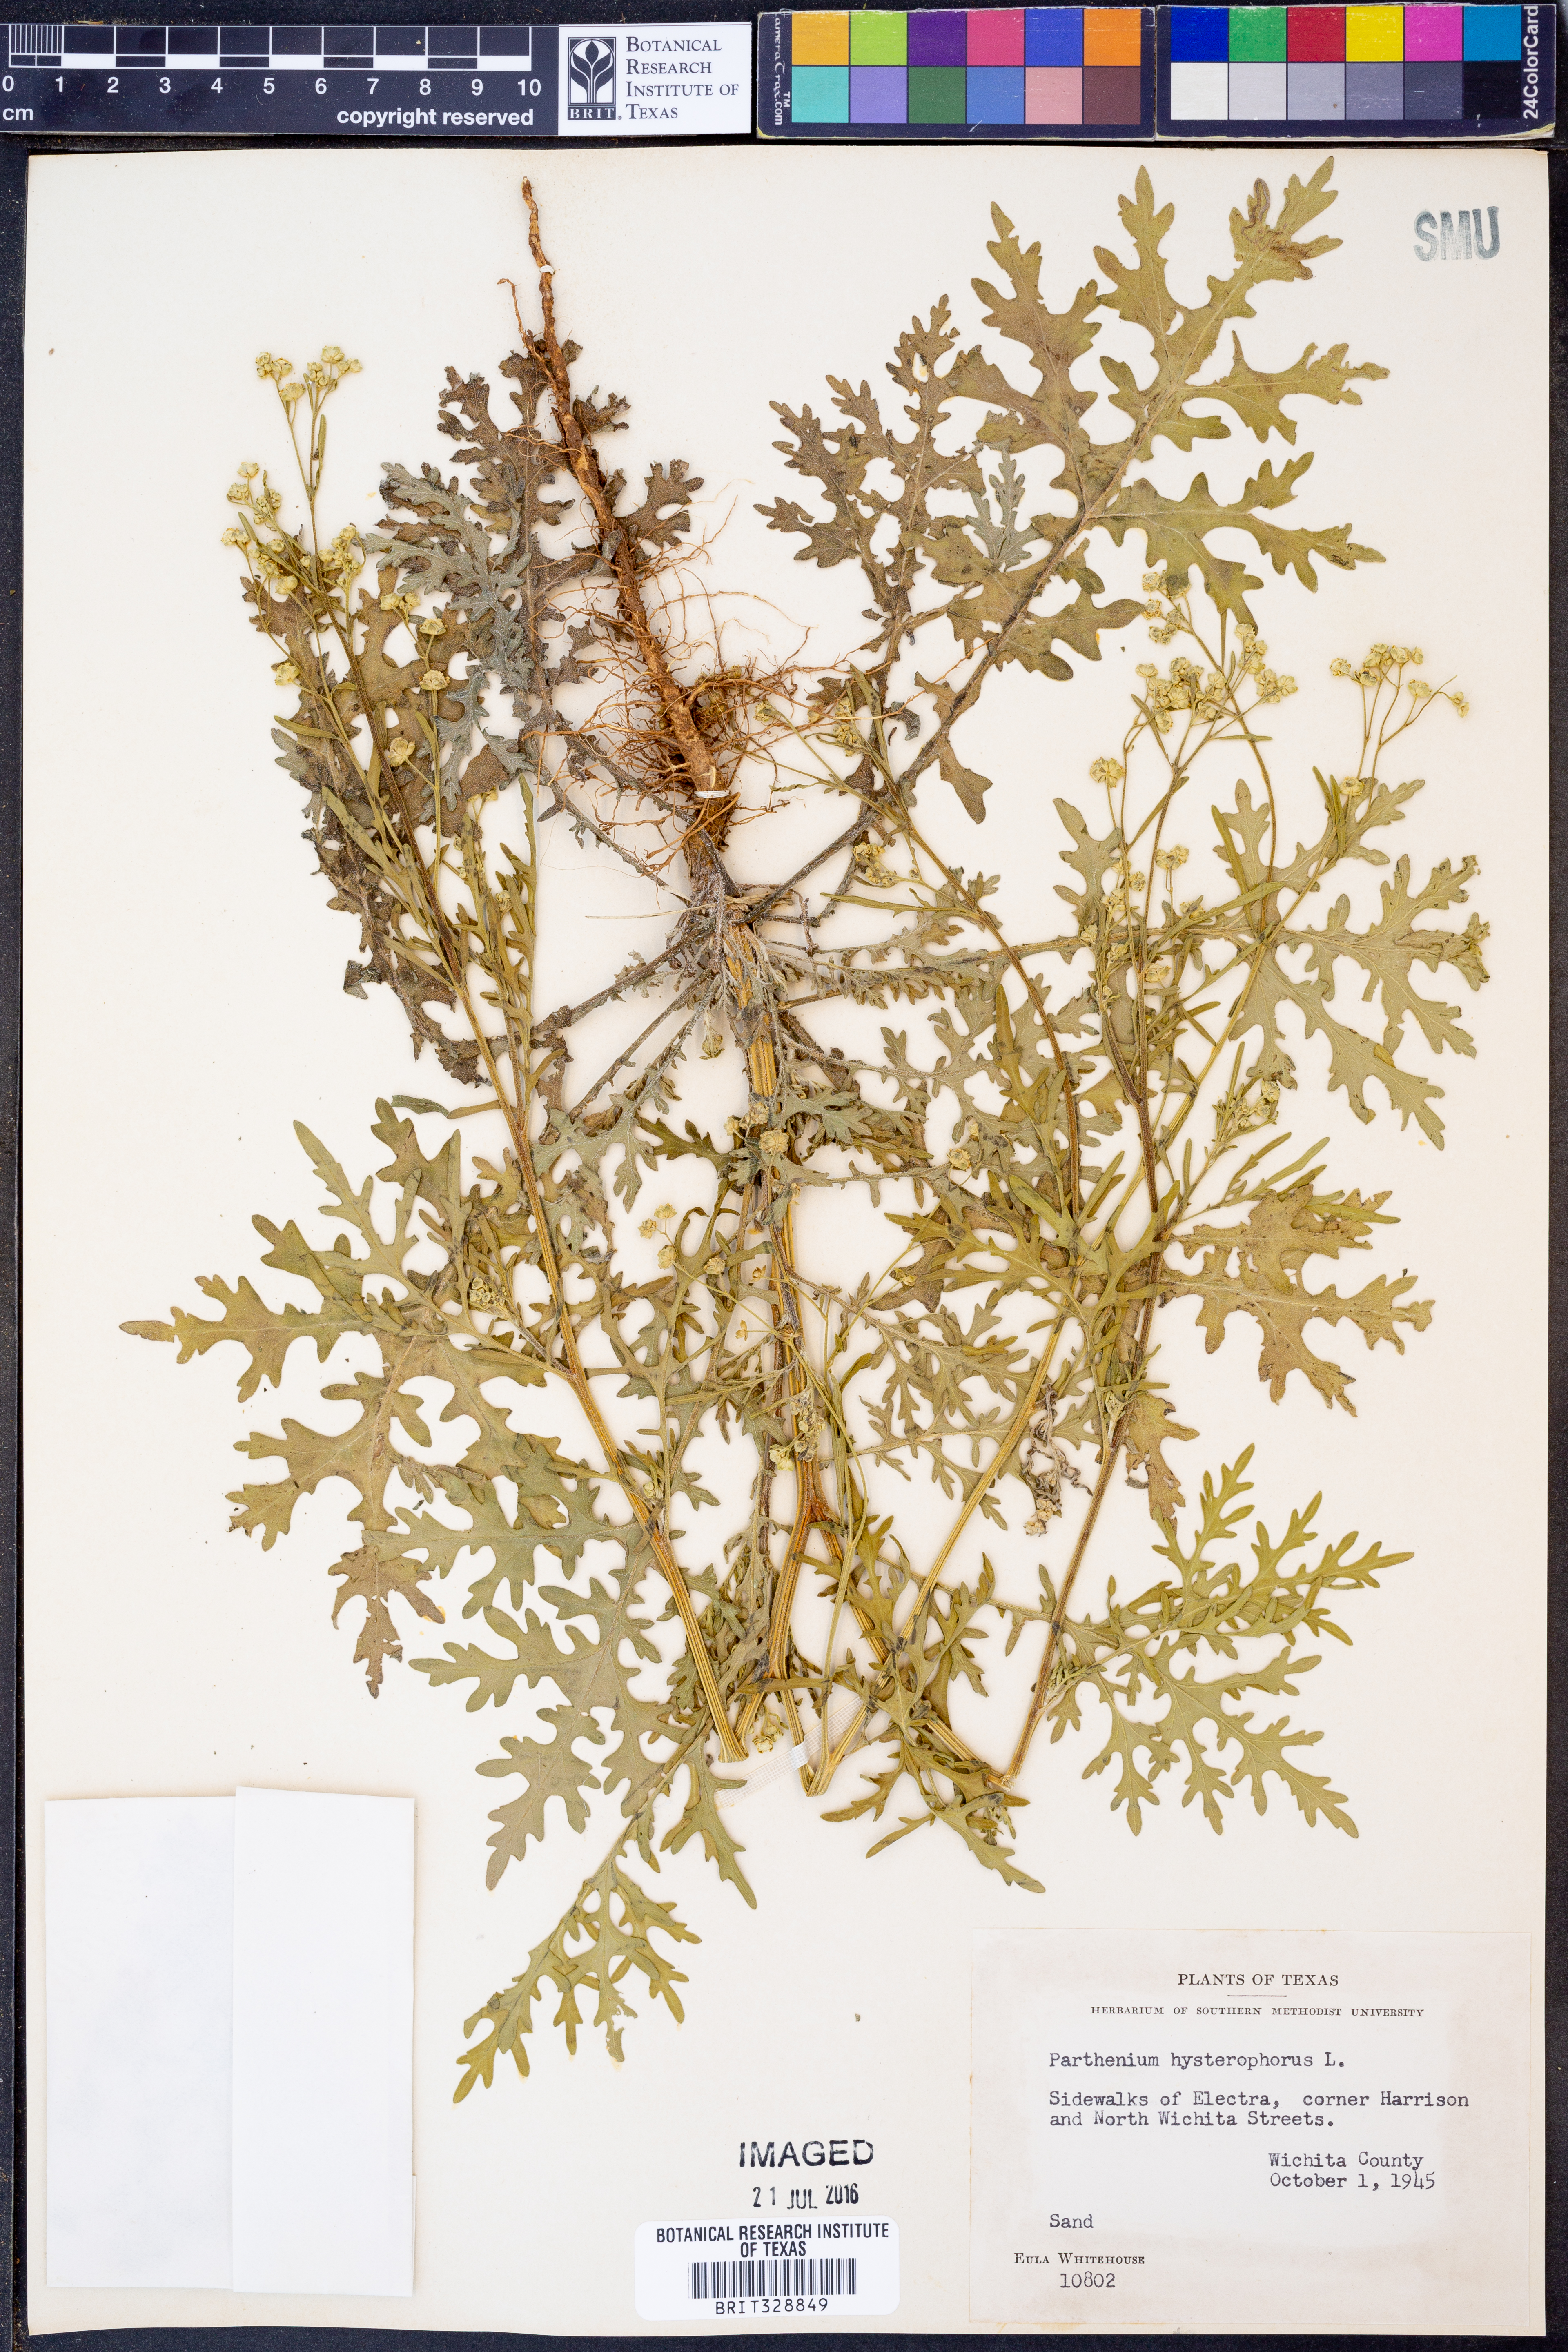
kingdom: Plantae
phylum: Tracheophyta
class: Magnoliopsida
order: Asterales
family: Asteraceae
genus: Parthenium
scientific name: Parthenium hysterophorus
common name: Santa maria feverfew
